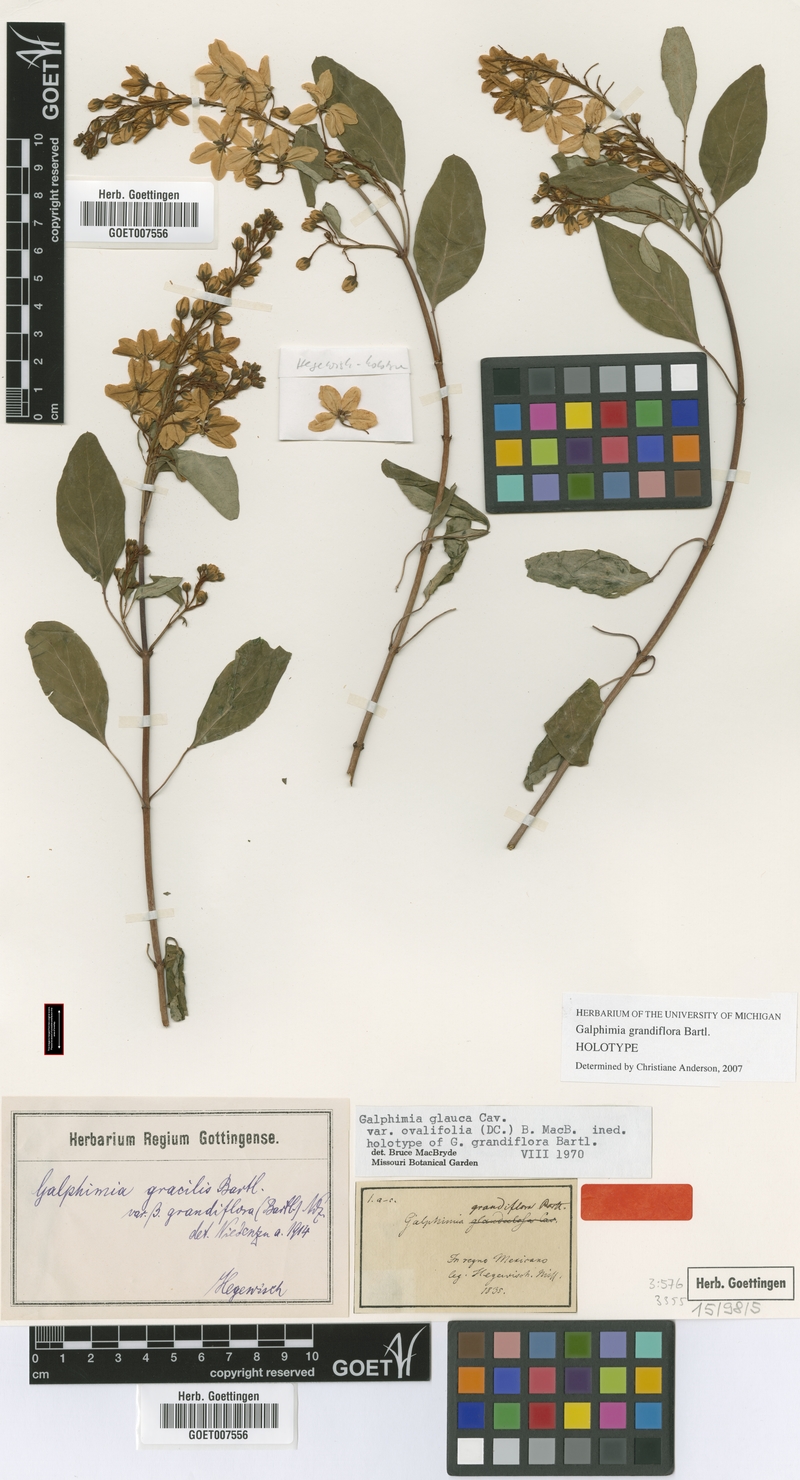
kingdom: Plantae
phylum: Tracheophyta
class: Magnoliopsida
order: Malpighiales
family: Malpighiaceae
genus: Galphimia
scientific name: Galphimia grandiflora
